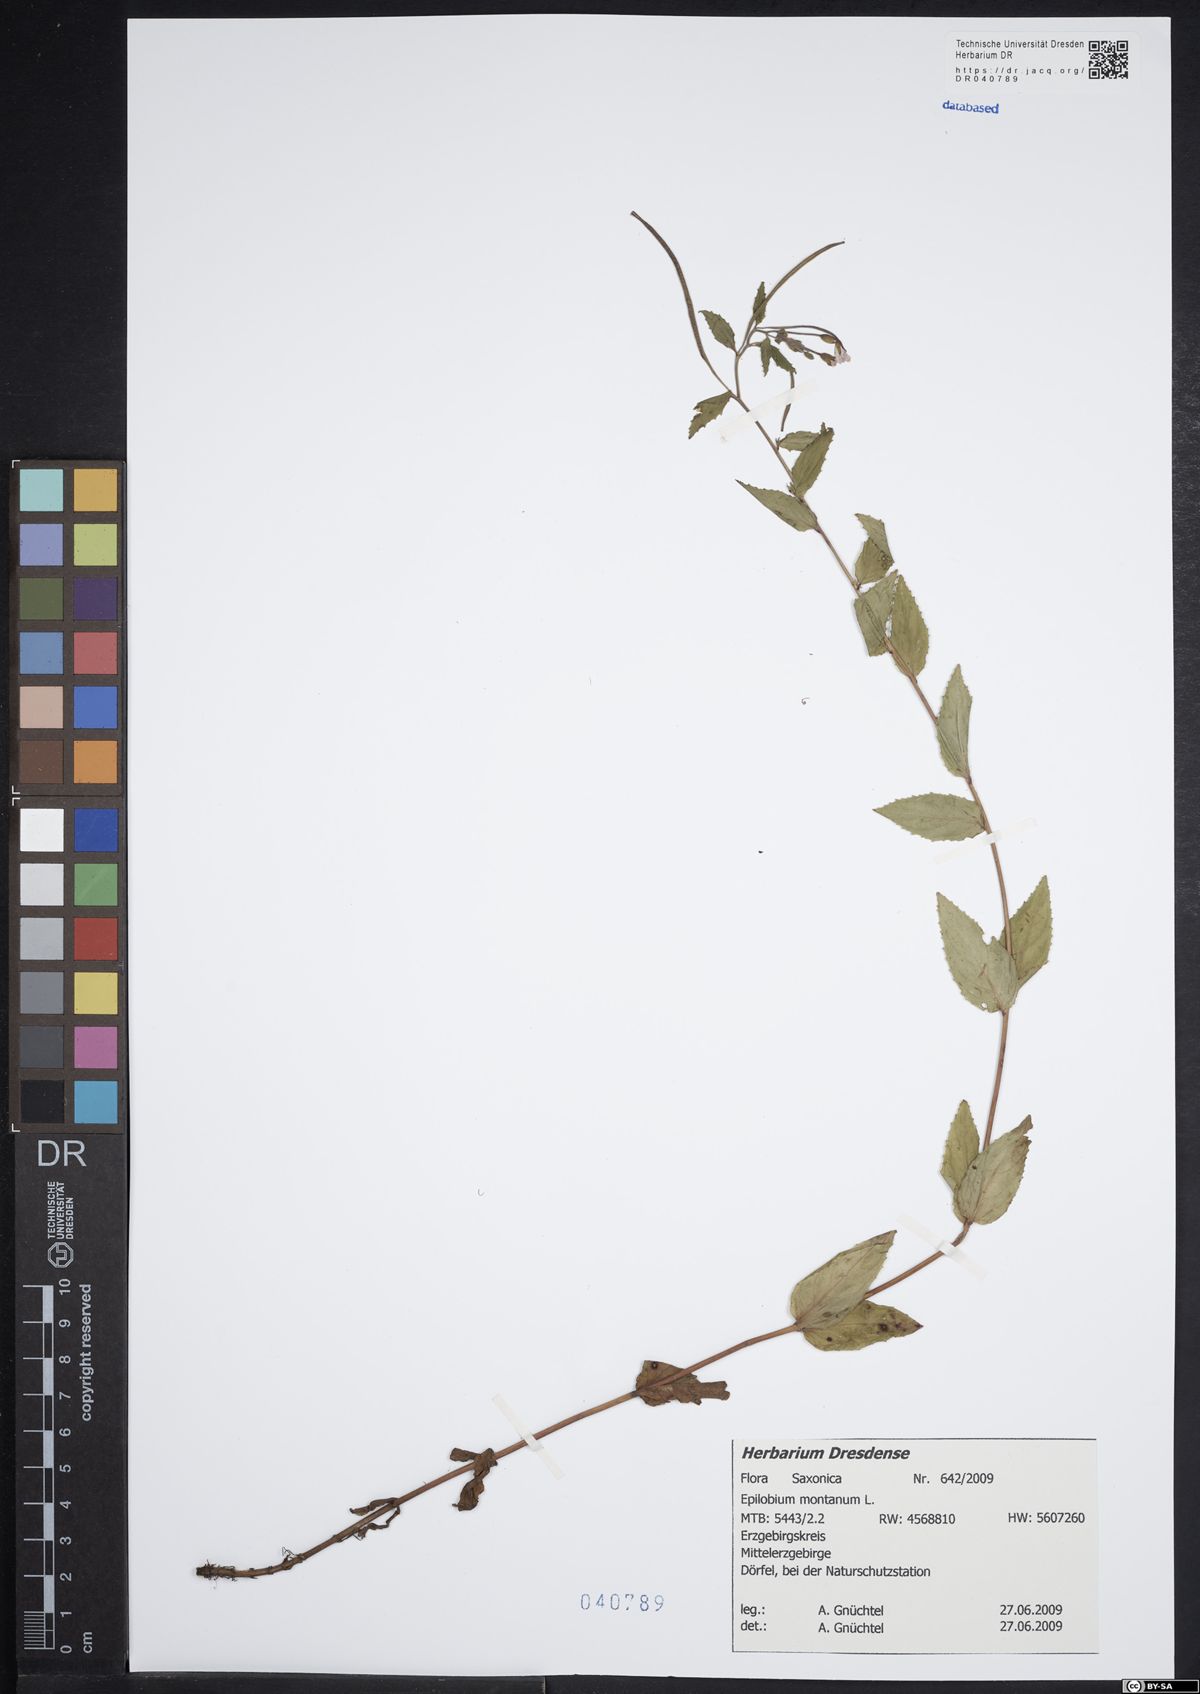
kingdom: Plantae
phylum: Tracheophyta
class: Magnoliopsida
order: Myrtales
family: Onagraceae
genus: Epilobium
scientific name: Epilobium montanum
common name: Broad-leaved willowherb
